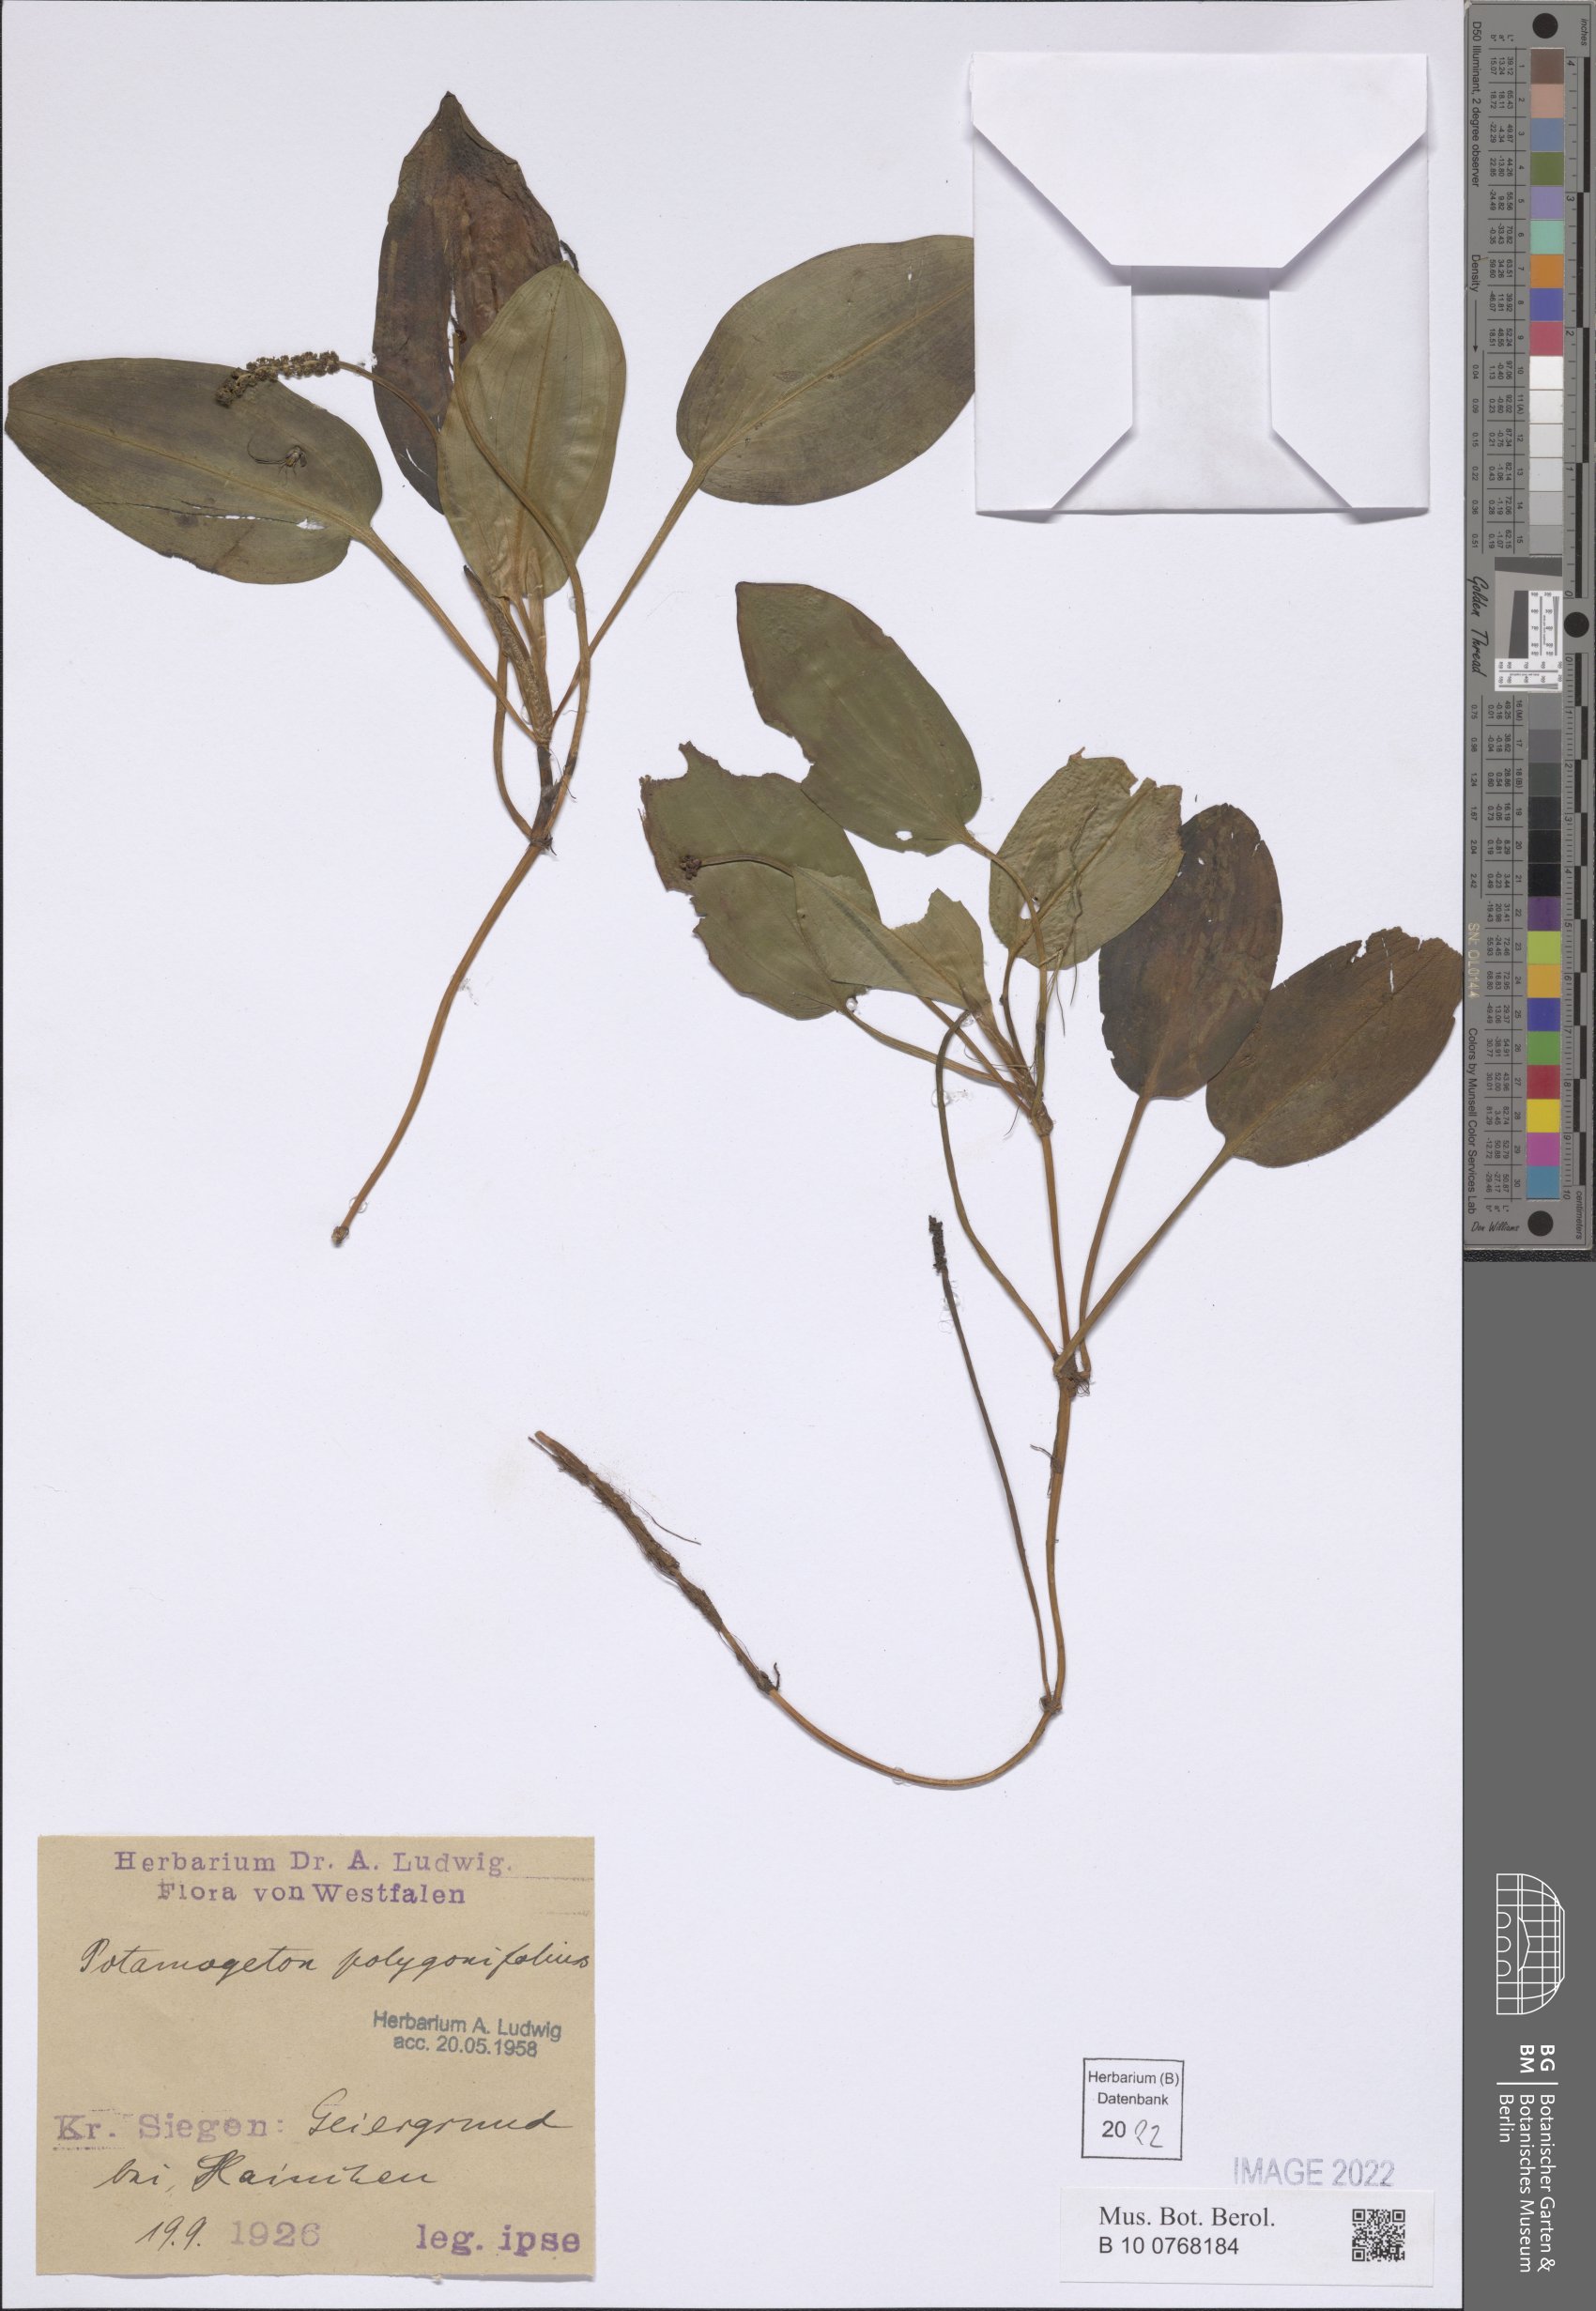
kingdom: Plantae
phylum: Tracheophyta
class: Liliopsida
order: Alismatales
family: Potamogetonaceae
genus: Potamogeton
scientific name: Potamogeton polygonifolius
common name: Bog pondweed
